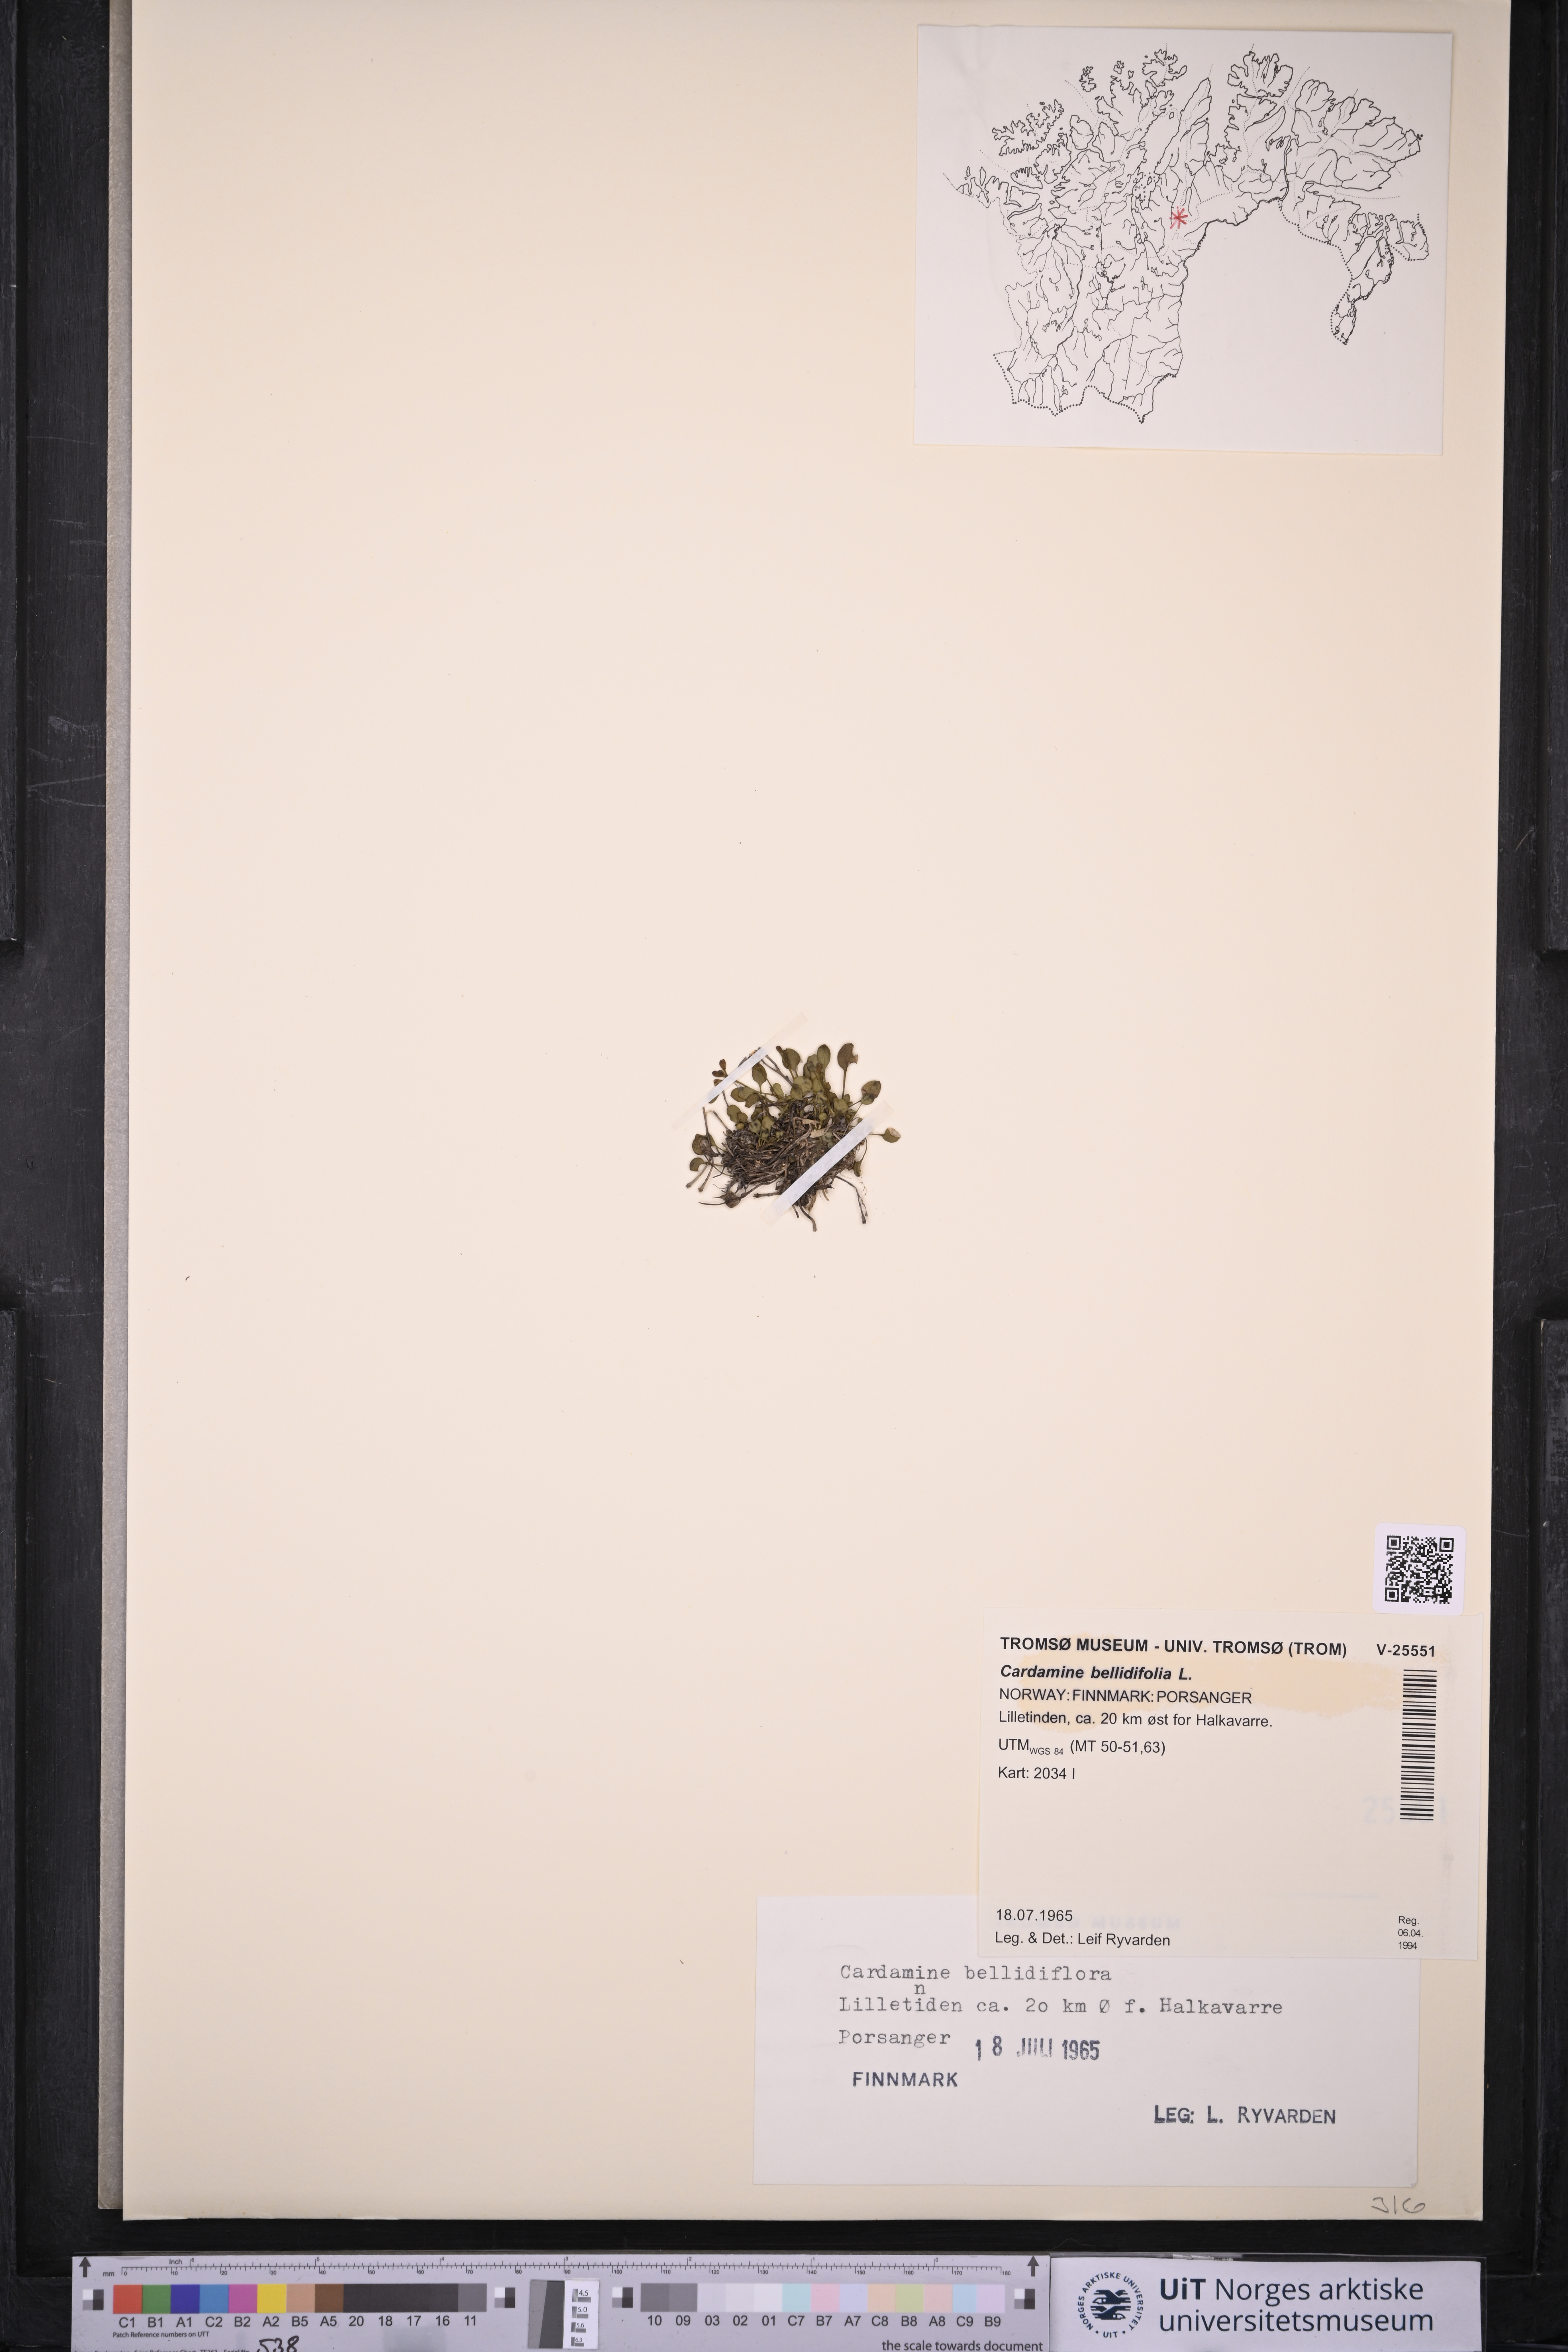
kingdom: Plantae
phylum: Tracheophyta
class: Magnoliopsida
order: Brassicales
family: Brassicaceae
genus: Cardamine
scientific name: Cardamine bellidifolia
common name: Alpine bittercress
